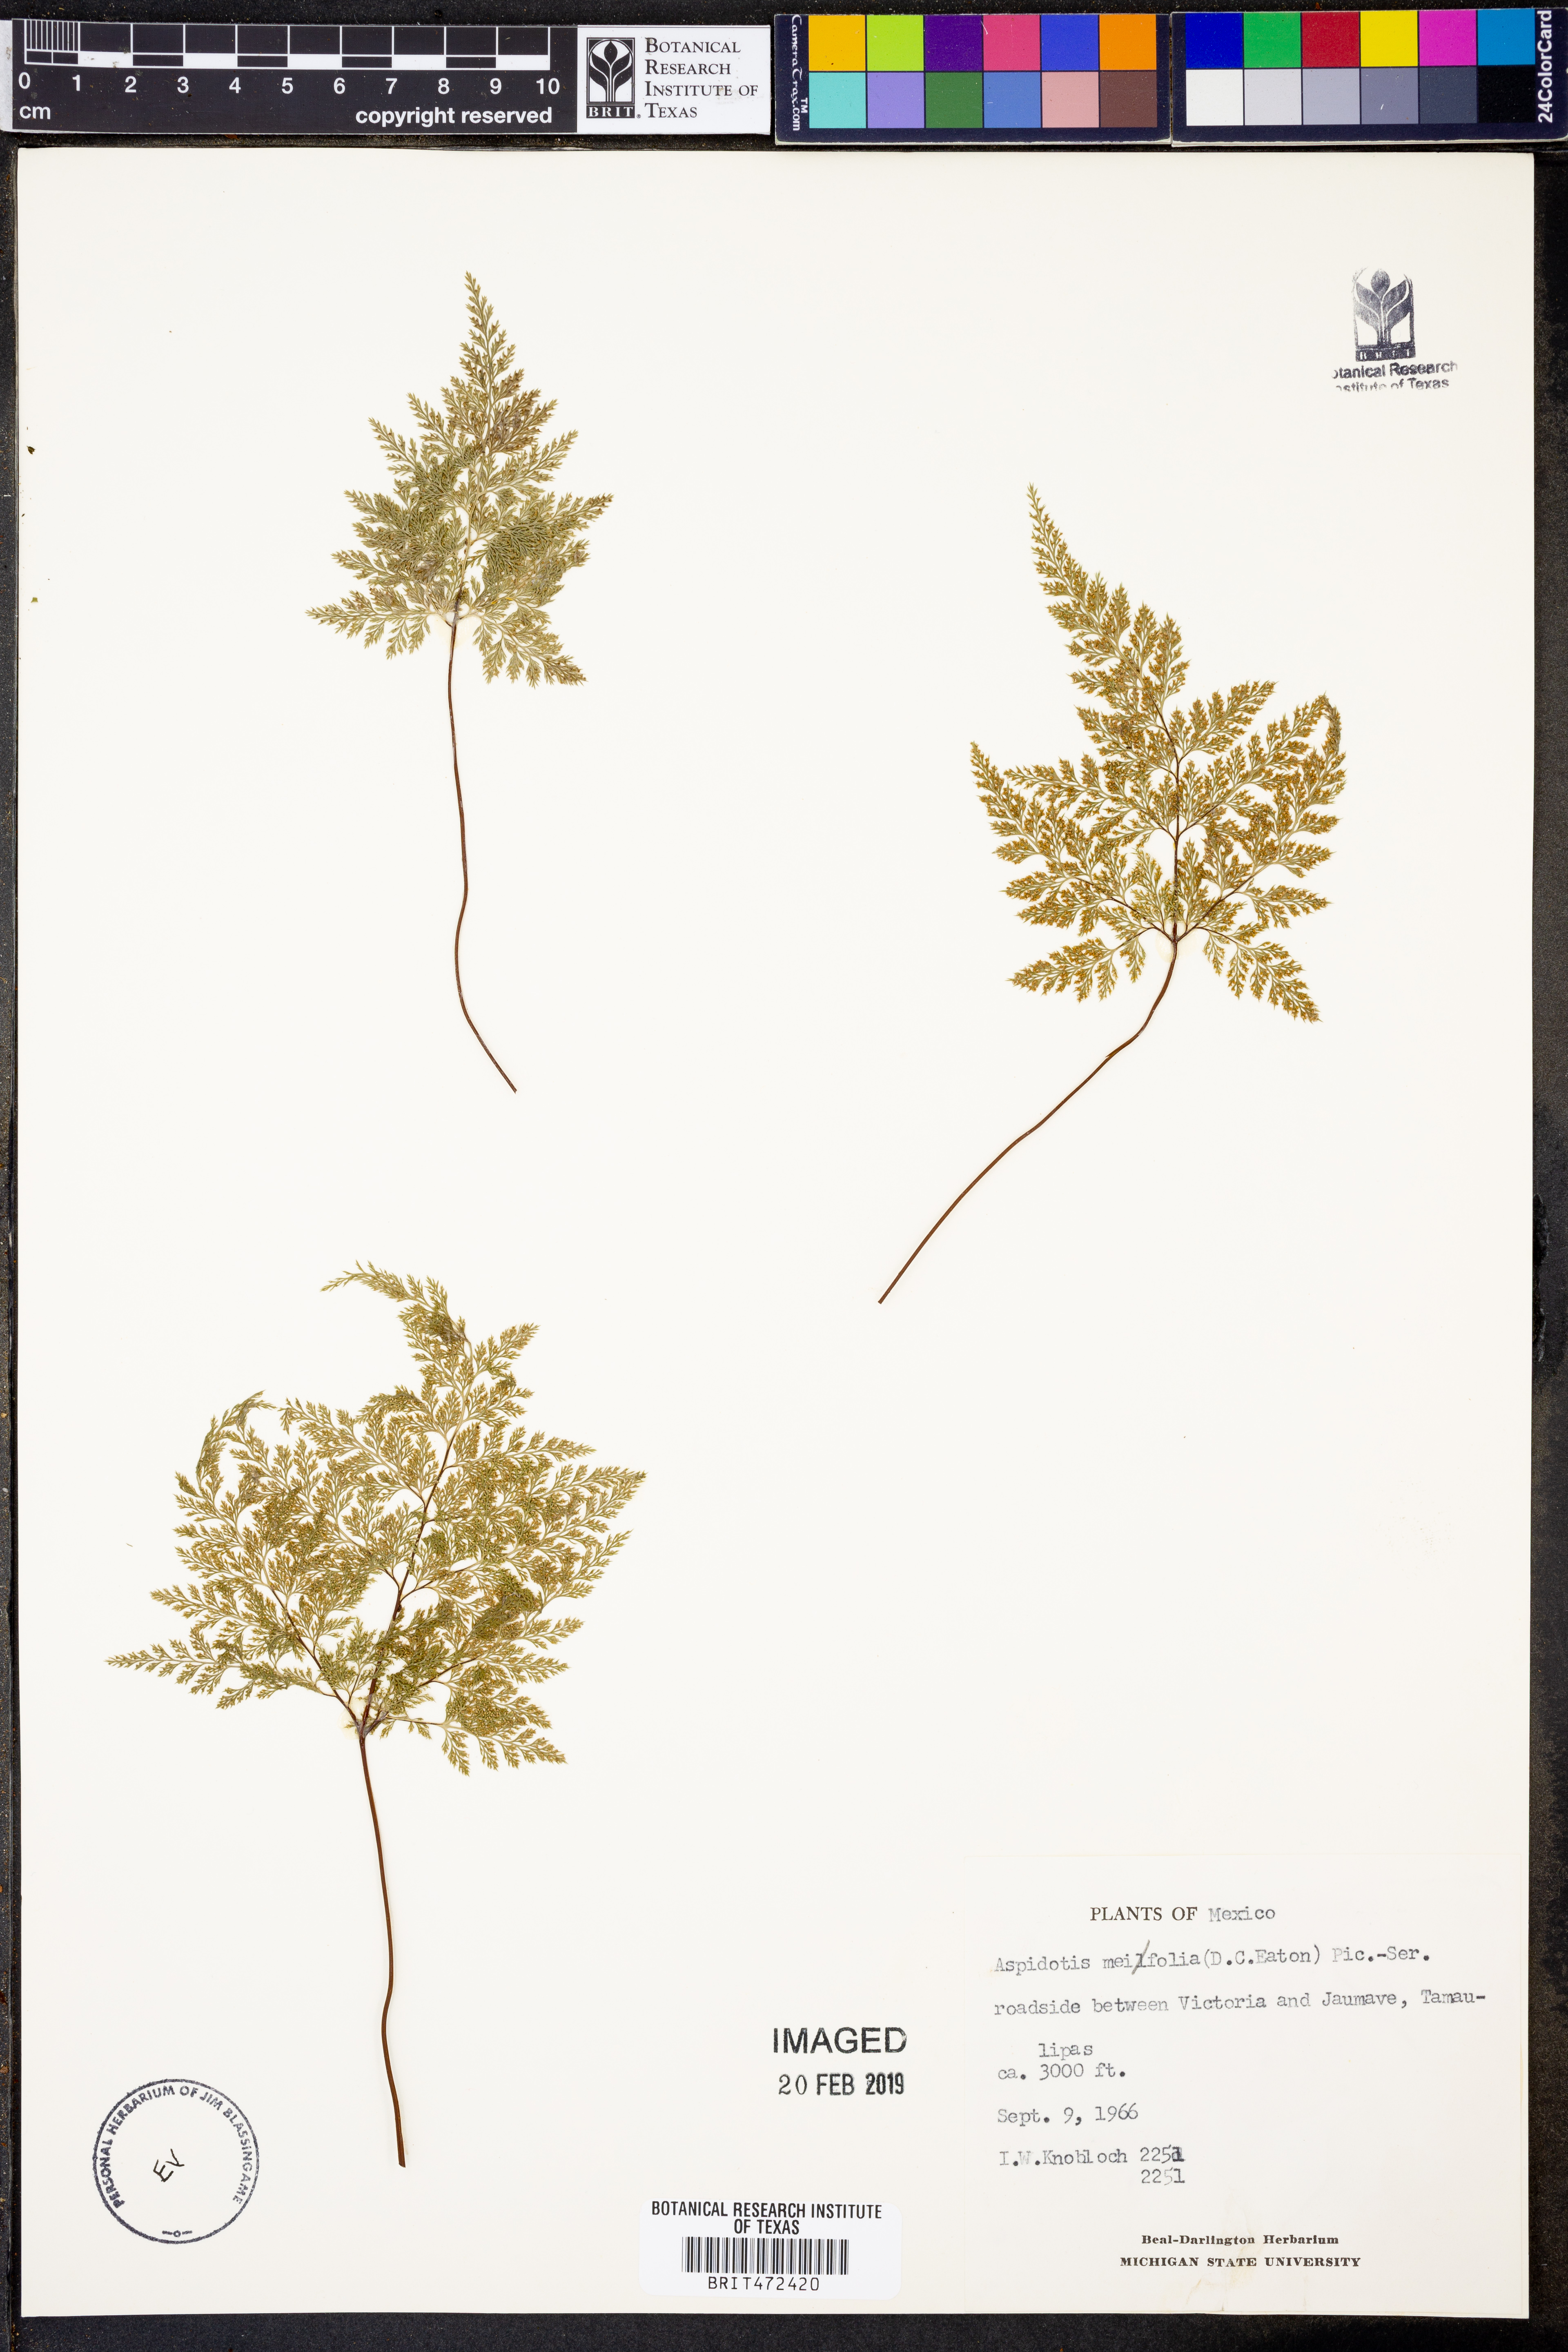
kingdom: Plantae
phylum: Tracheophyta
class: Polypodiopsida
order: Polypodiales
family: Pteridaceae
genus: Aspidotis
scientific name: Aspidotis meifolia
